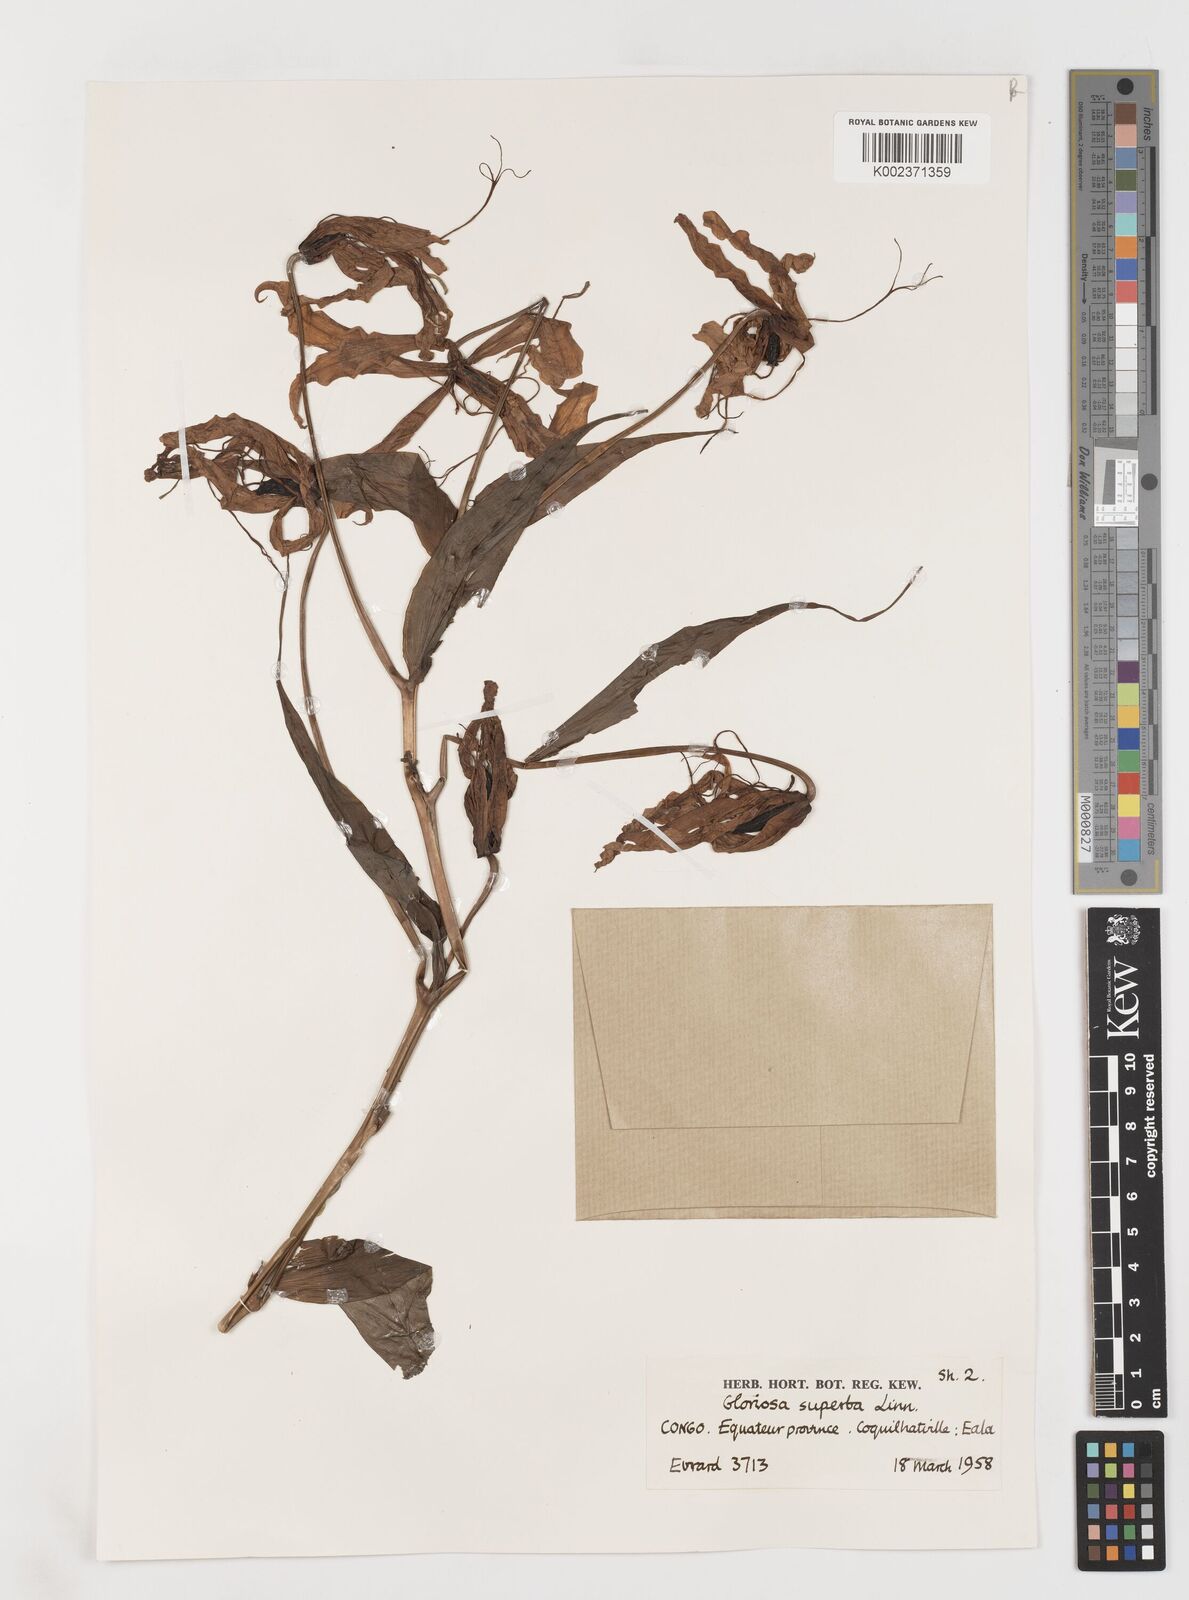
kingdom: Plantae
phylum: Tracheophyta
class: Liliopsida
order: Liliales
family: Colchicaceae
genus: Gloriosa
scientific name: Gloriosa superba
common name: Flame lily
